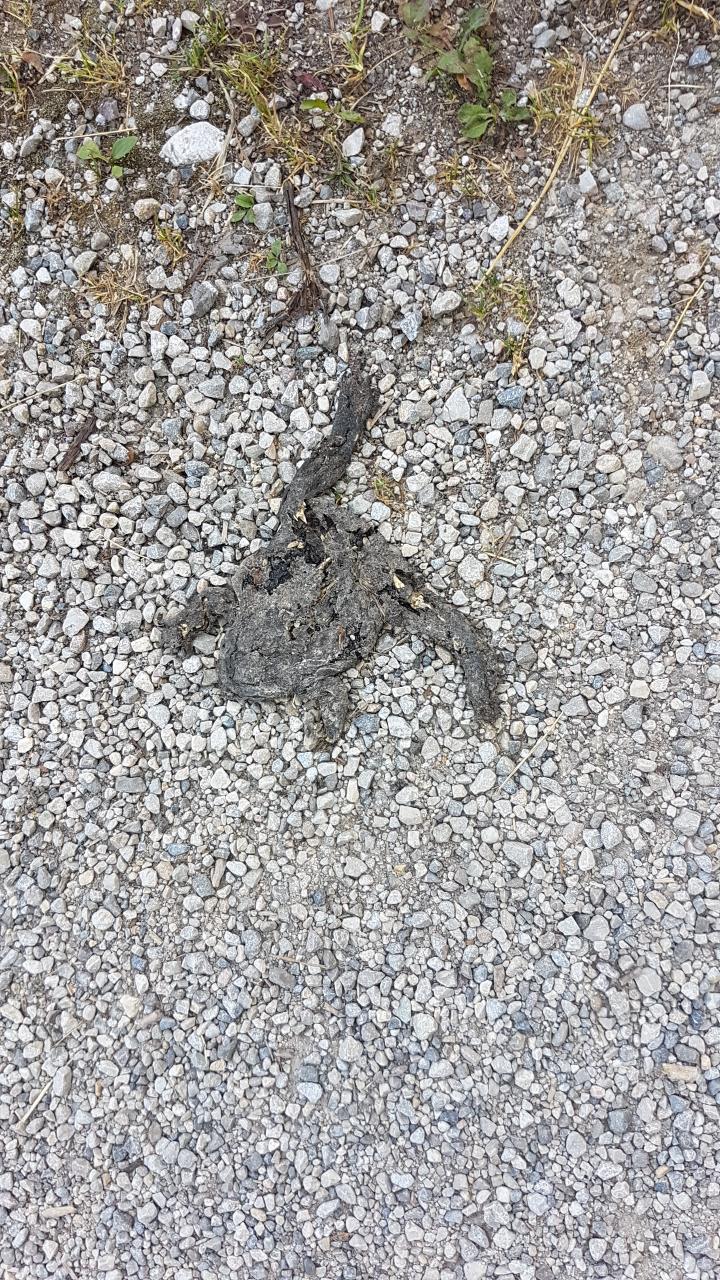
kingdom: Animalia
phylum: Chordata
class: Amphibia
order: Anura
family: Bufonidae
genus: Bufo
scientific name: Bufo bufo
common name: Common toad
